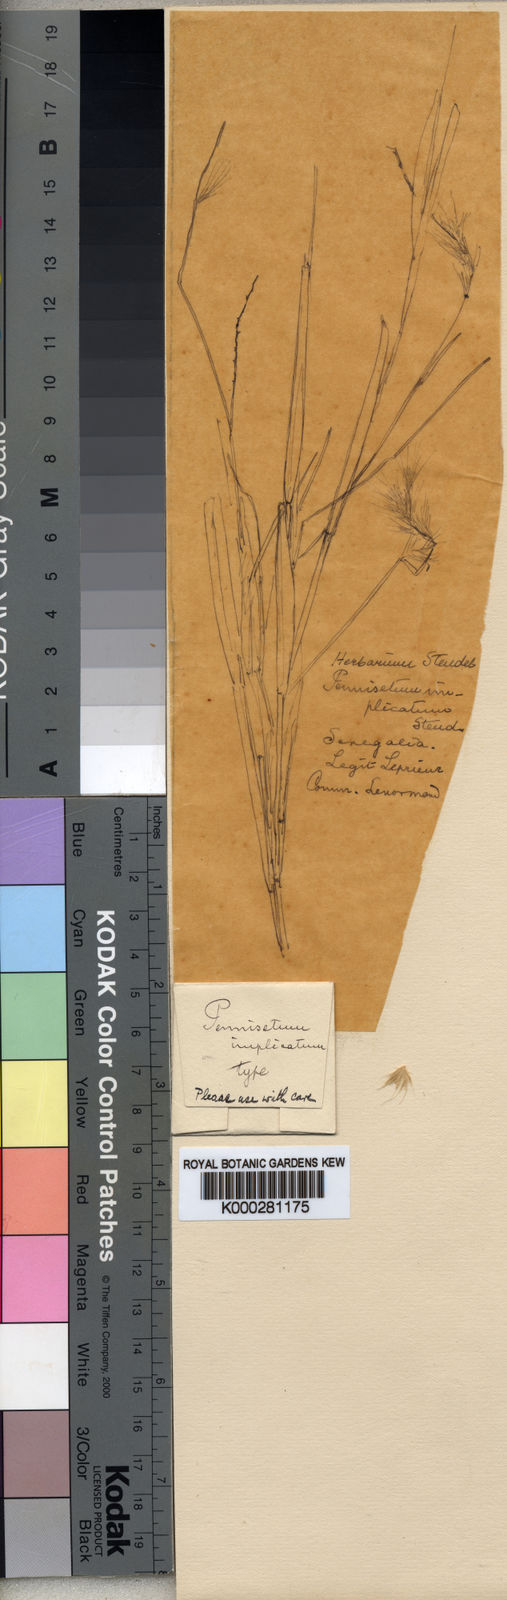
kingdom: Plantae
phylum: Tracheophyta
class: Liliopsida
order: Poales
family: Poaceae
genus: Cenchrus
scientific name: Cenchrus pedicellatus
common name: Hairy fountain grass
